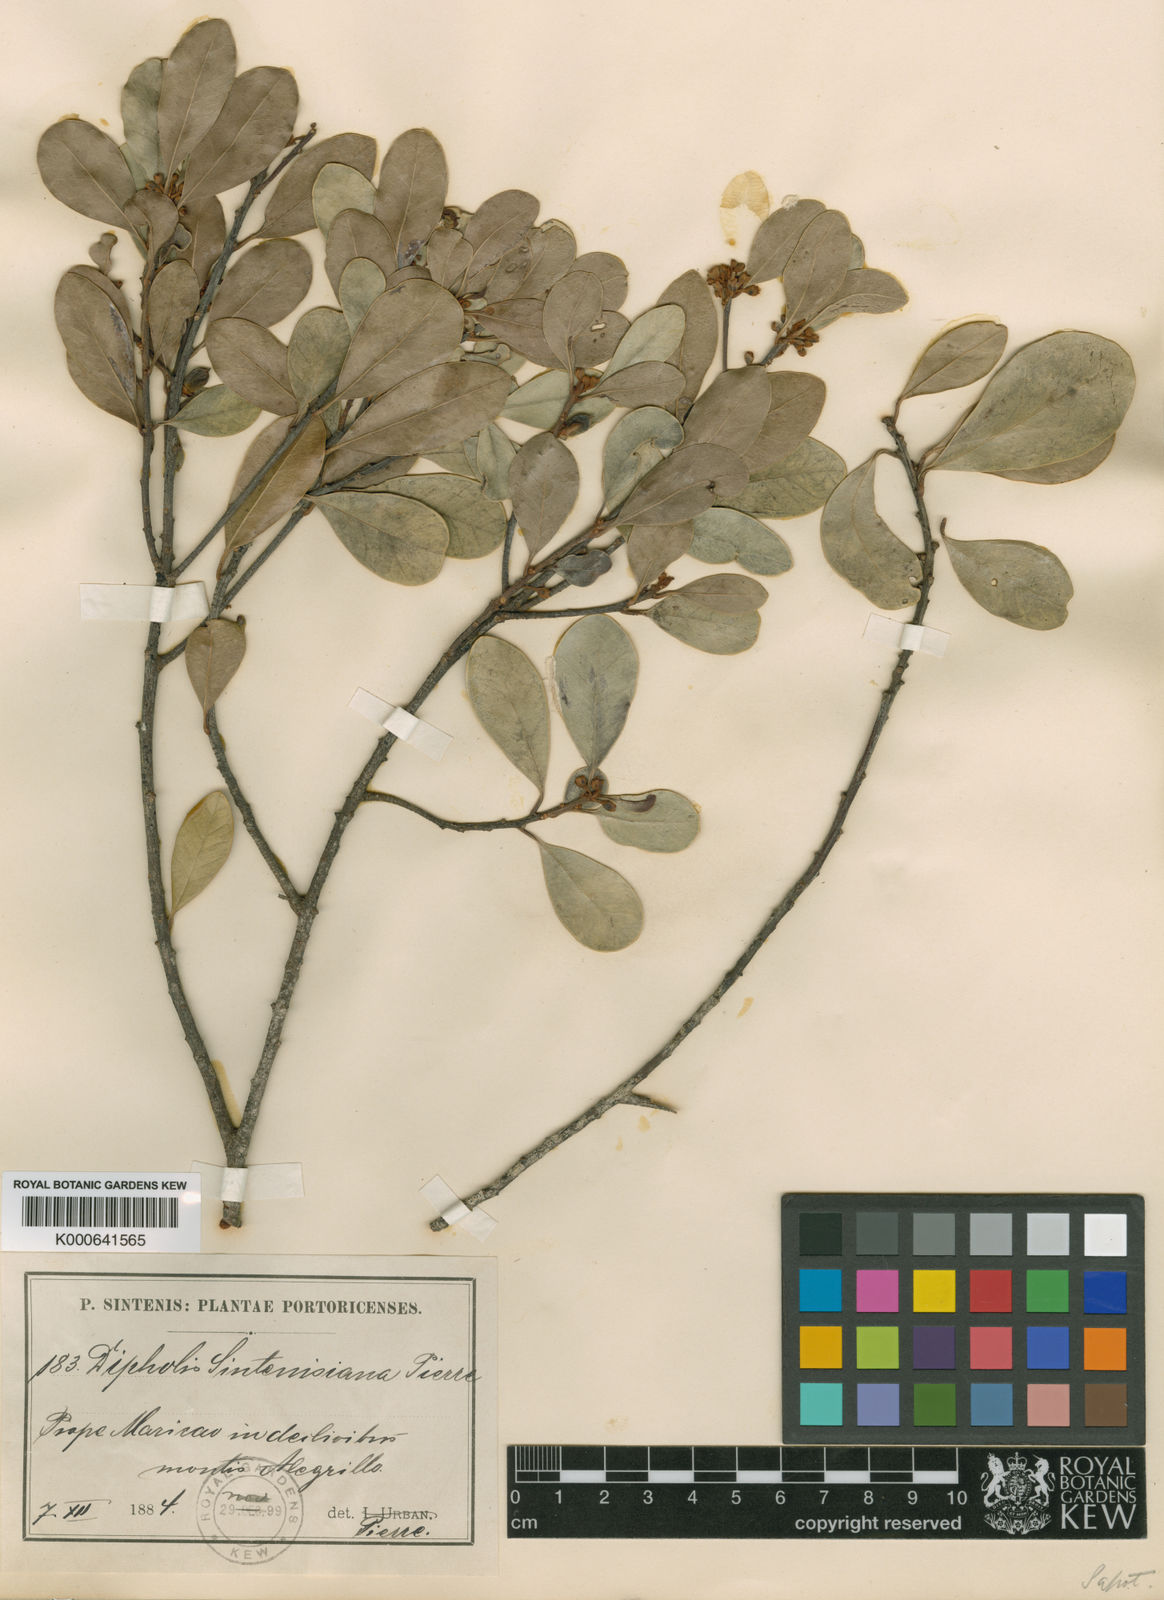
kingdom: Plantae
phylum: Tracheophyta
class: Magnoliopsida
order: Ericales
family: Sapotaceae
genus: Sideroxylon
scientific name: Sideroxylon cubense
